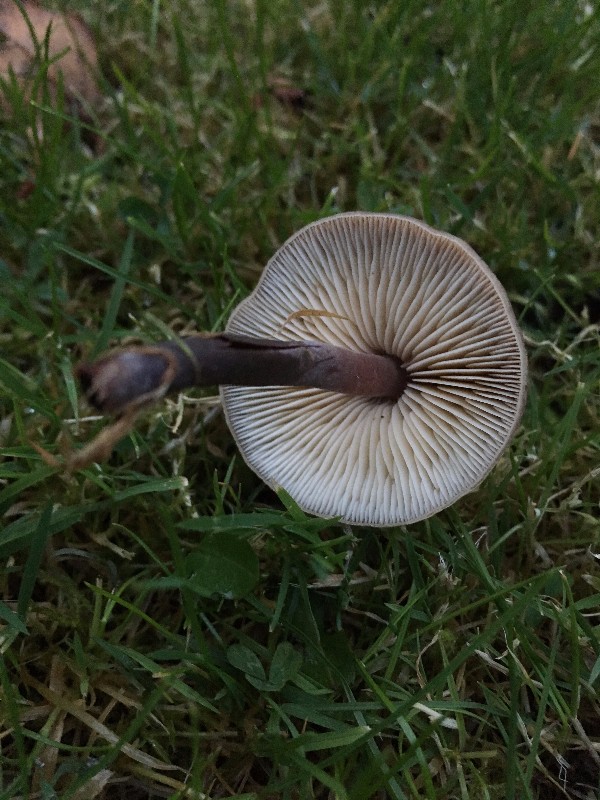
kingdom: Fungi
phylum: Basidiomycota
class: Agaricomycetes
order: Agaricales
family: Macrocystidiaceae
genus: Macrocystidia
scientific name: Macrocystidia cucumis
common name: agurkehat
